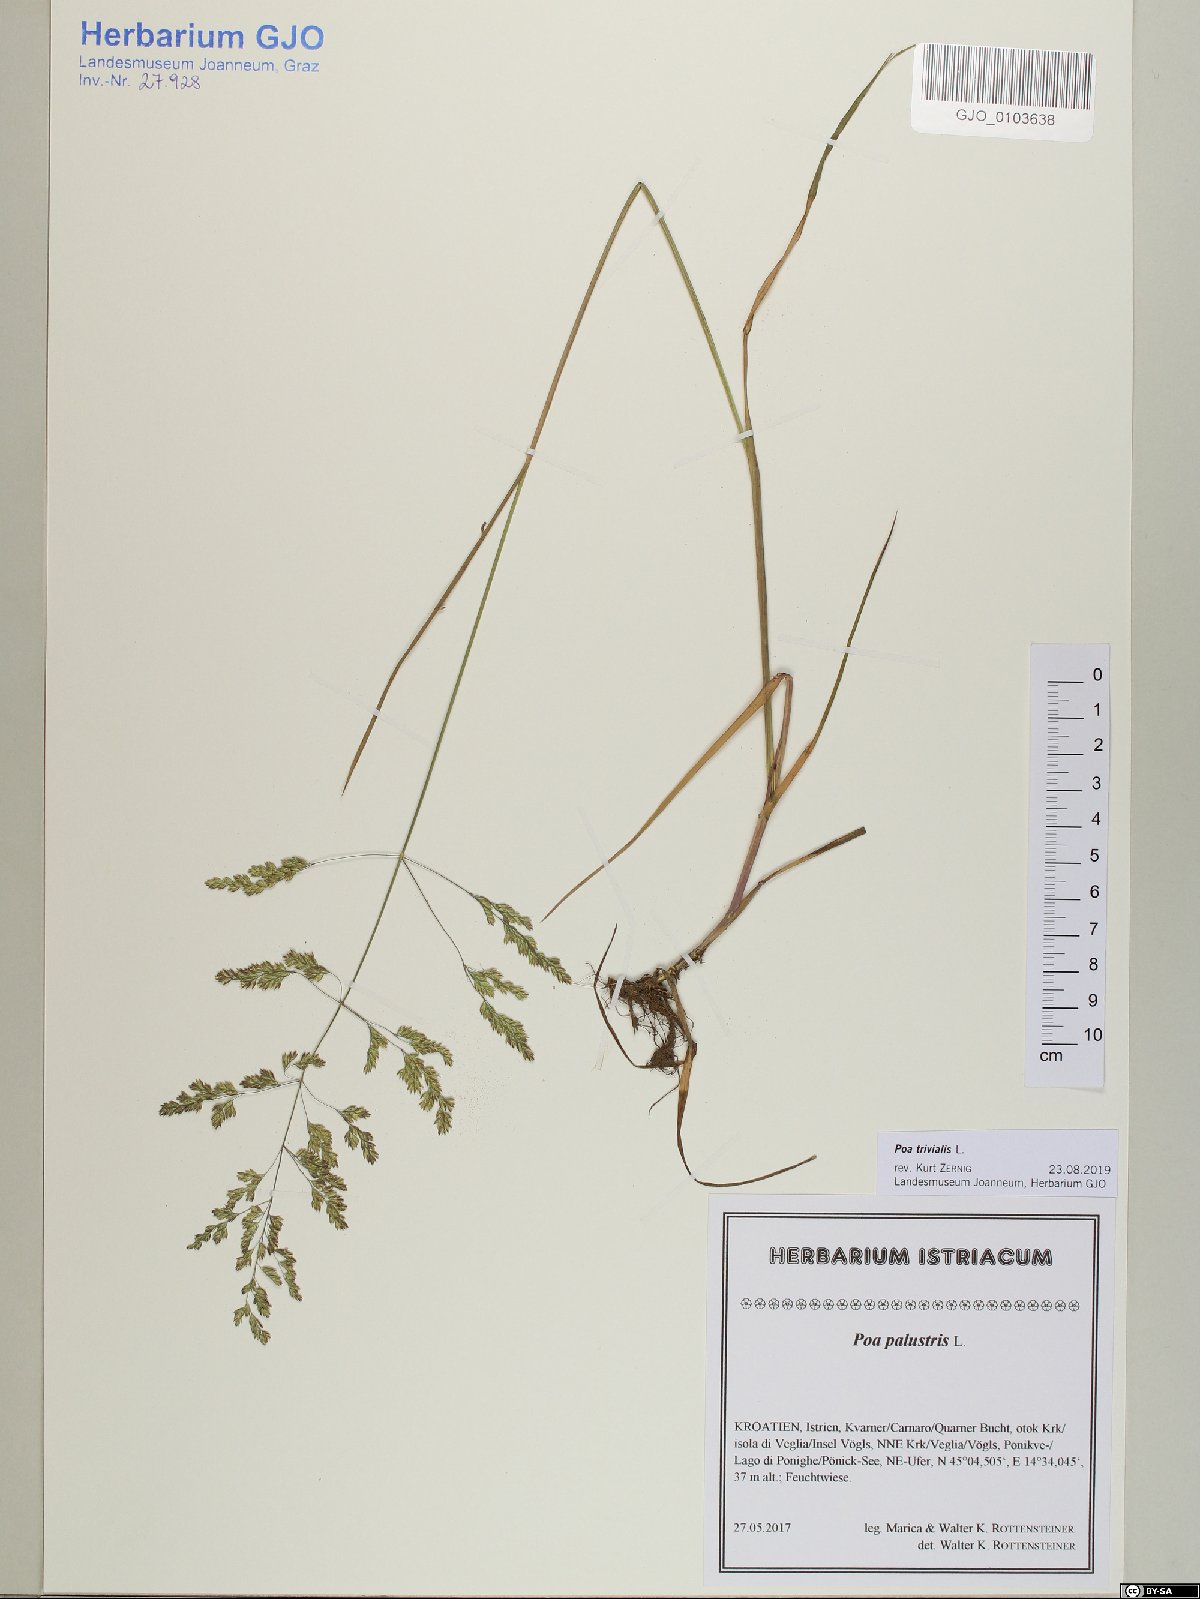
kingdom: Plantae
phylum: Tracheophyta
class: Liliopsida
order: Poales
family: Poaceae
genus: Poa
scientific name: Poa trivialis
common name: Rough bluegrass
